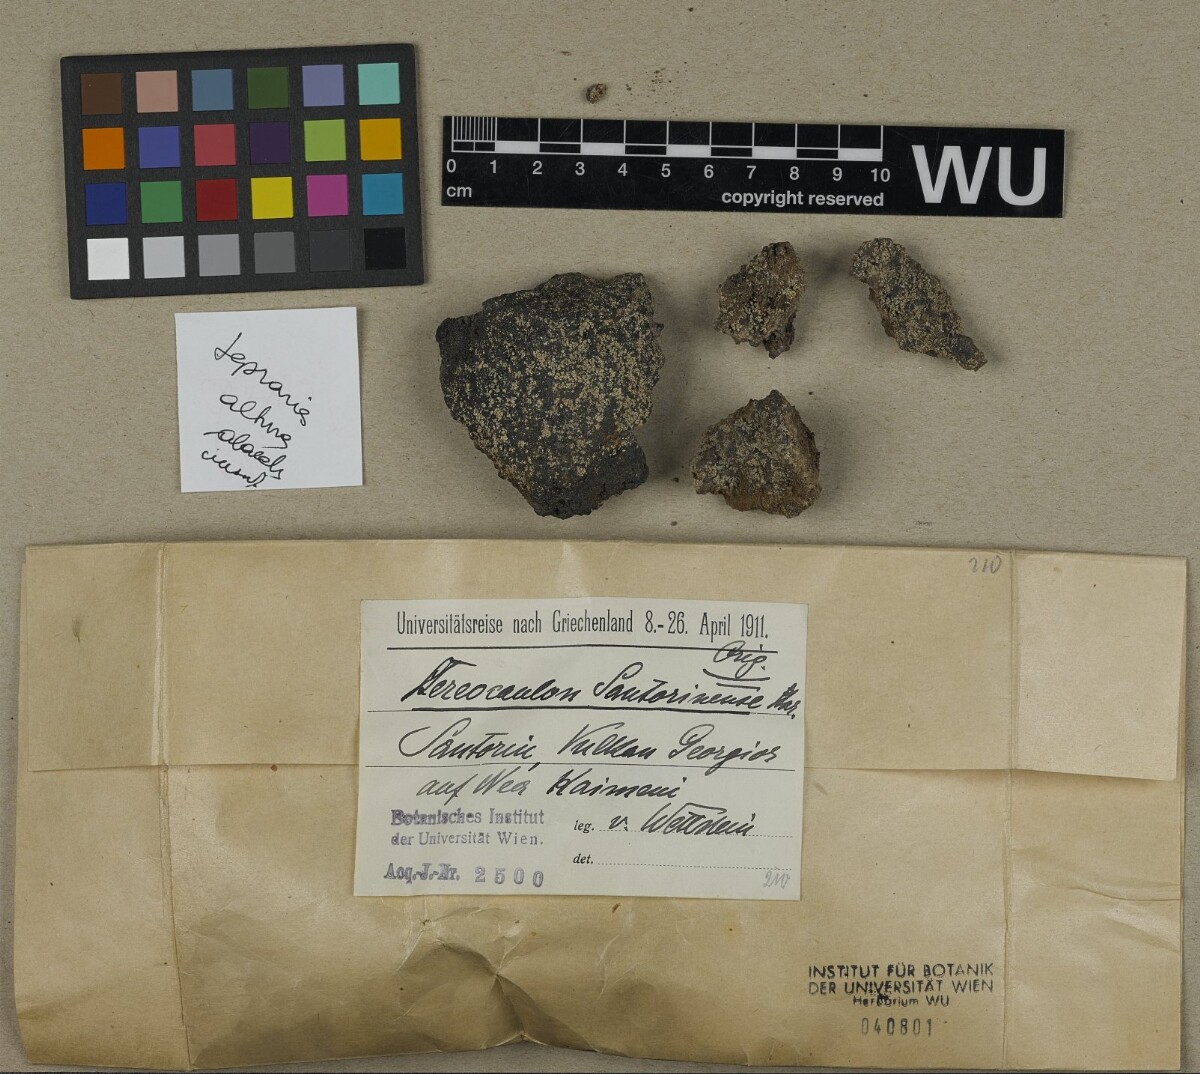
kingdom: Fungi
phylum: Ascomycota
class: Lecanoromycetes
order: Lecanorales
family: Stereocaulaceae
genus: Stereocaulon
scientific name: Stereocaulon santorinense
